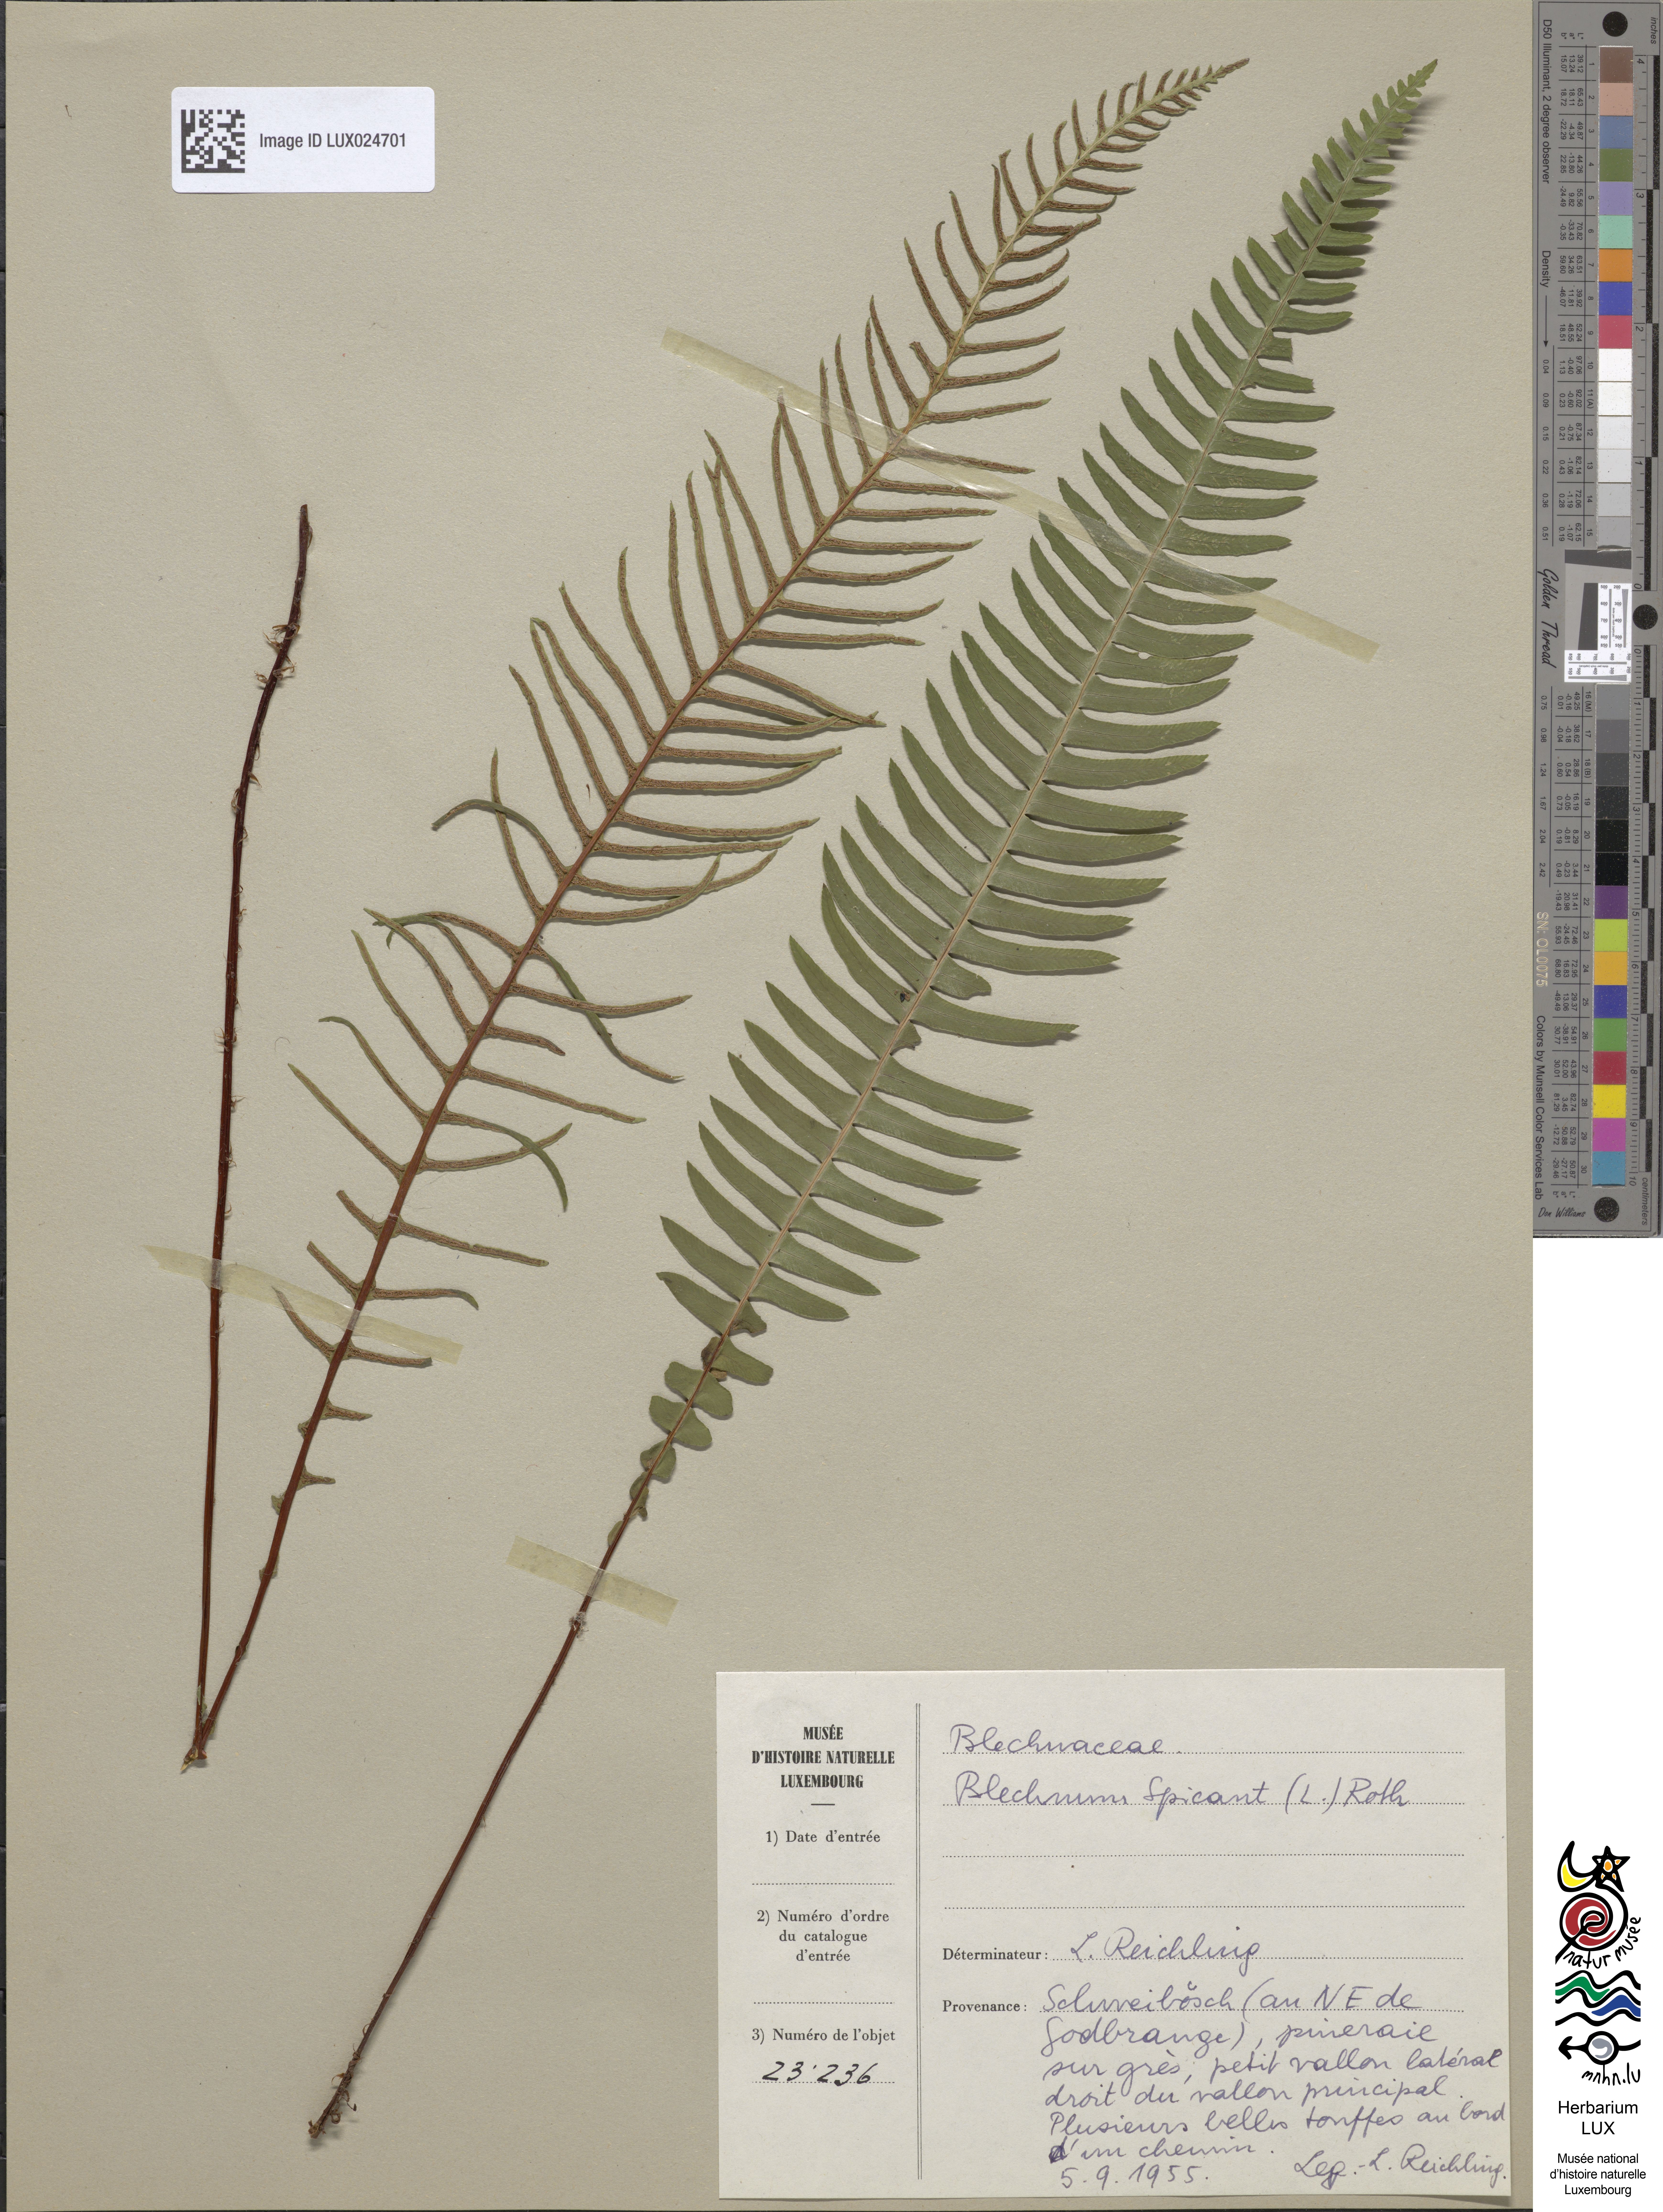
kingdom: Plantae
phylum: Tracheophyta
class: Polypodiopsida
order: Polypodiales
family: Blechnaceae
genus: Struthiopteris
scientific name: Struthiopteris spicant
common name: Deer fern
